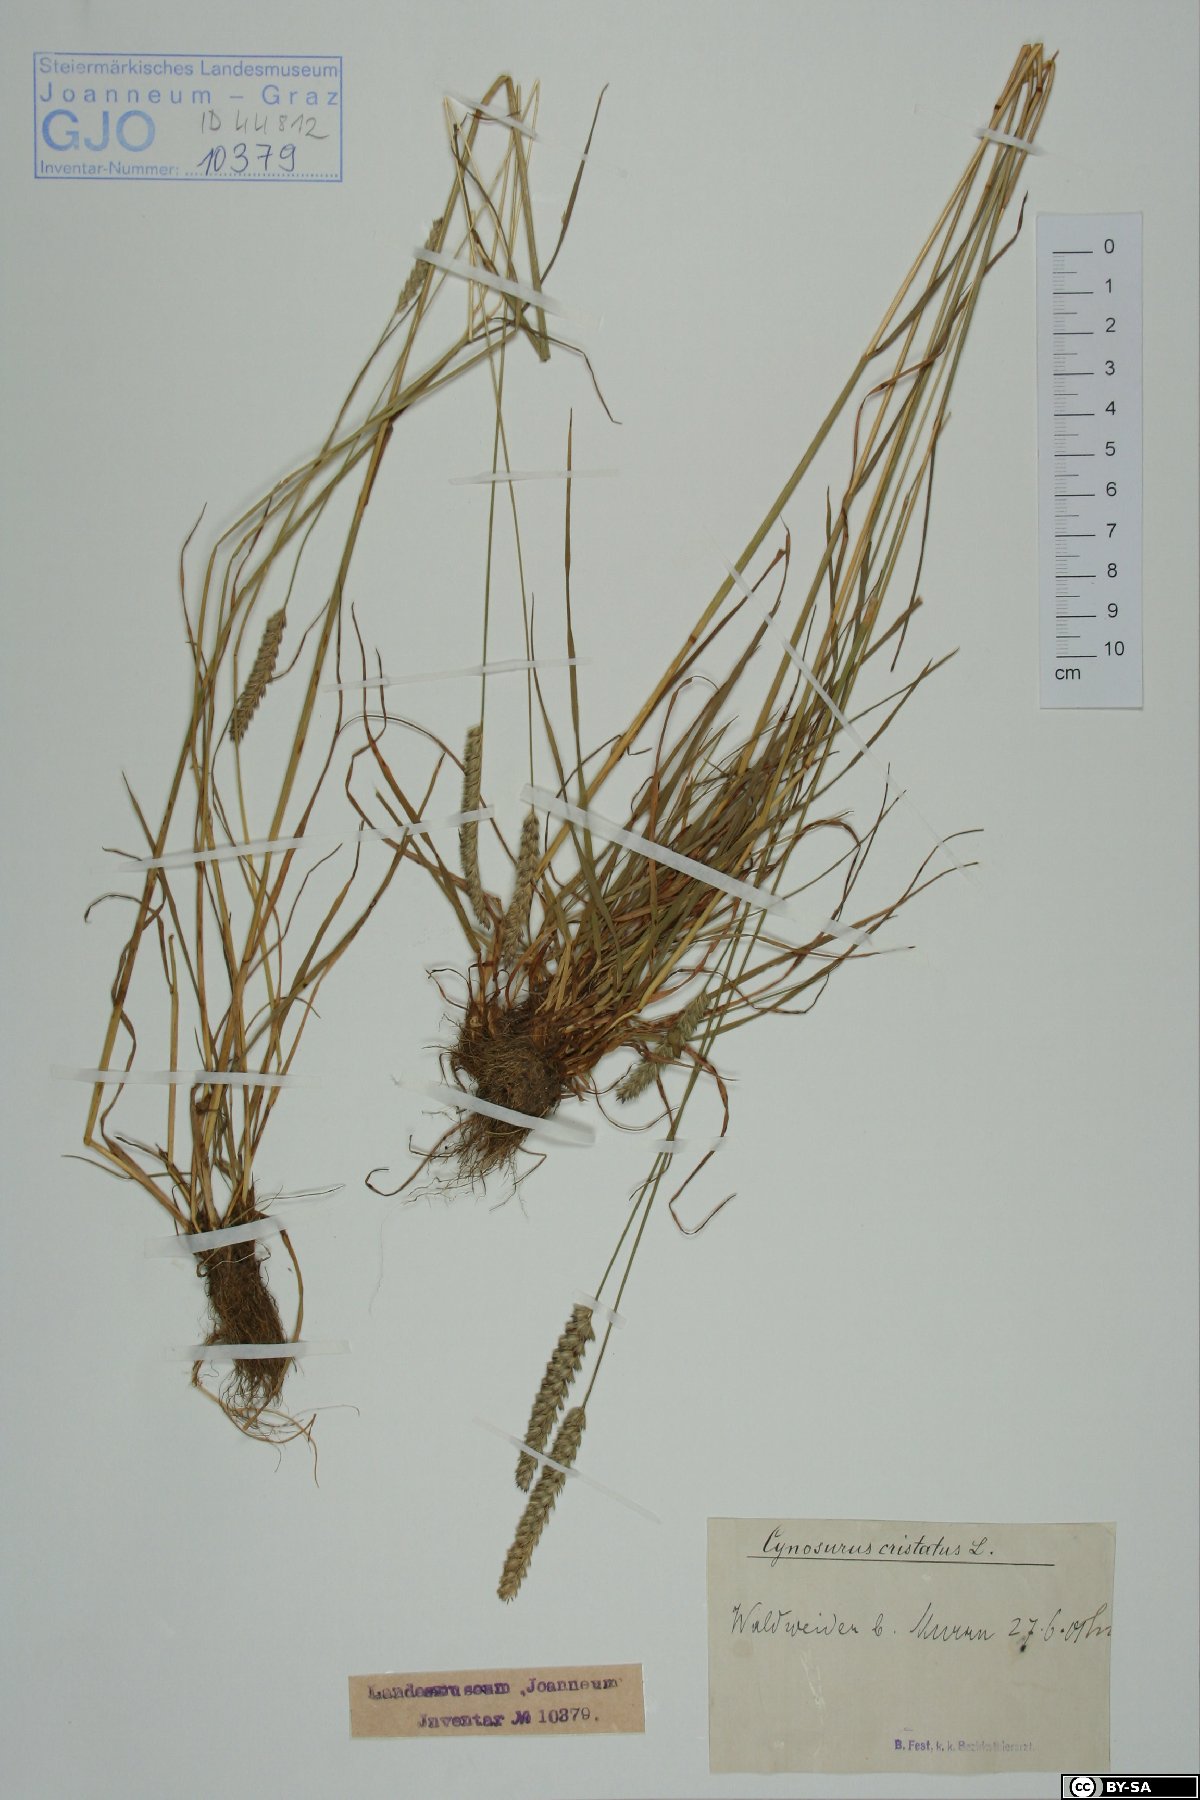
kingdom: Plantae
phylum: Tracheophyta
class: Liliopsida
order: Poales
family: Poaceae
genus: Cynosurus
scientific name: Cynosurus cristatus
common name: Crested dog's-tail
